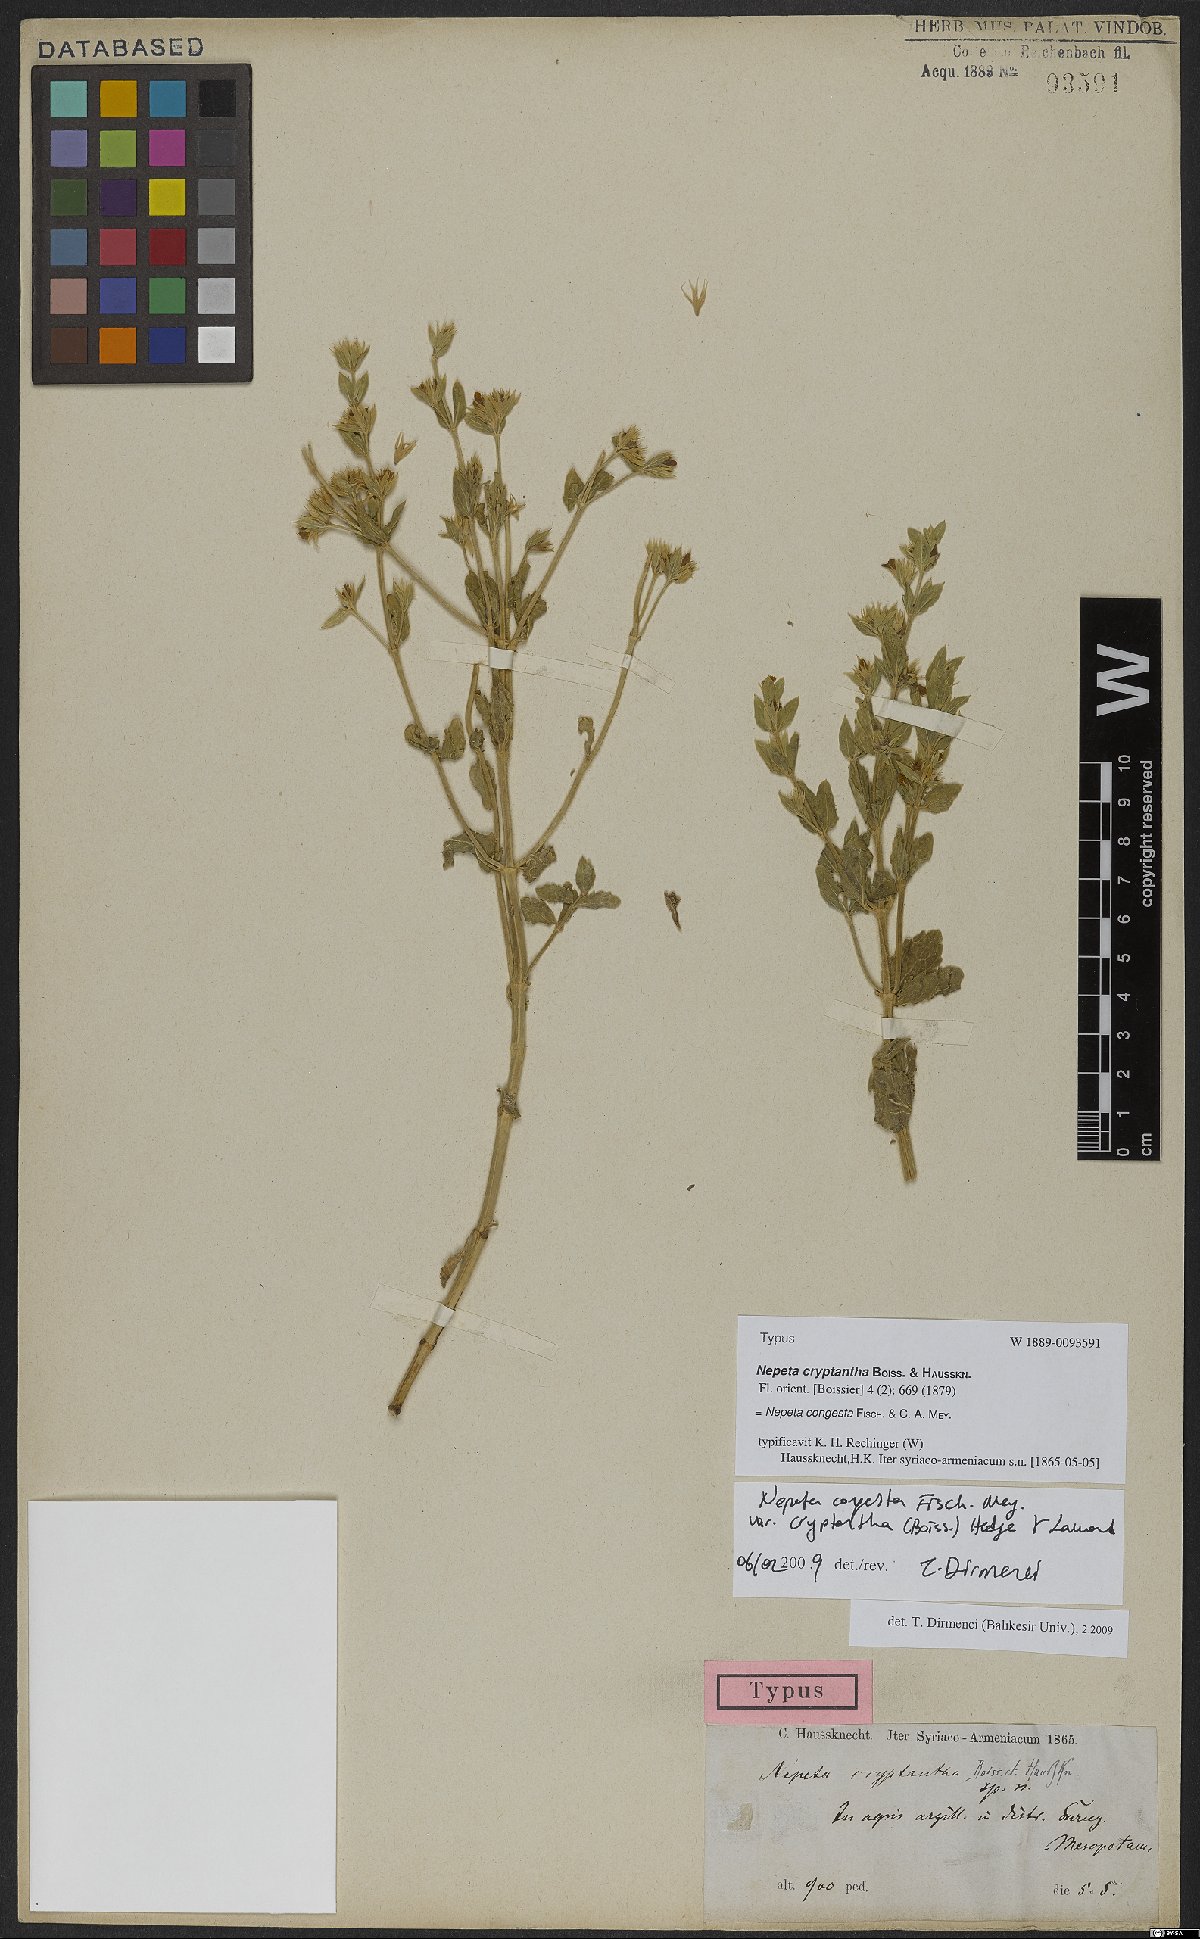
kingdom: Plantae
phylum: Tracheophyta
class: Magnoliopsida
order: Lamiales
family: Lamiaceae
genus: Nepeta
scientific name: Nepeta congesta
